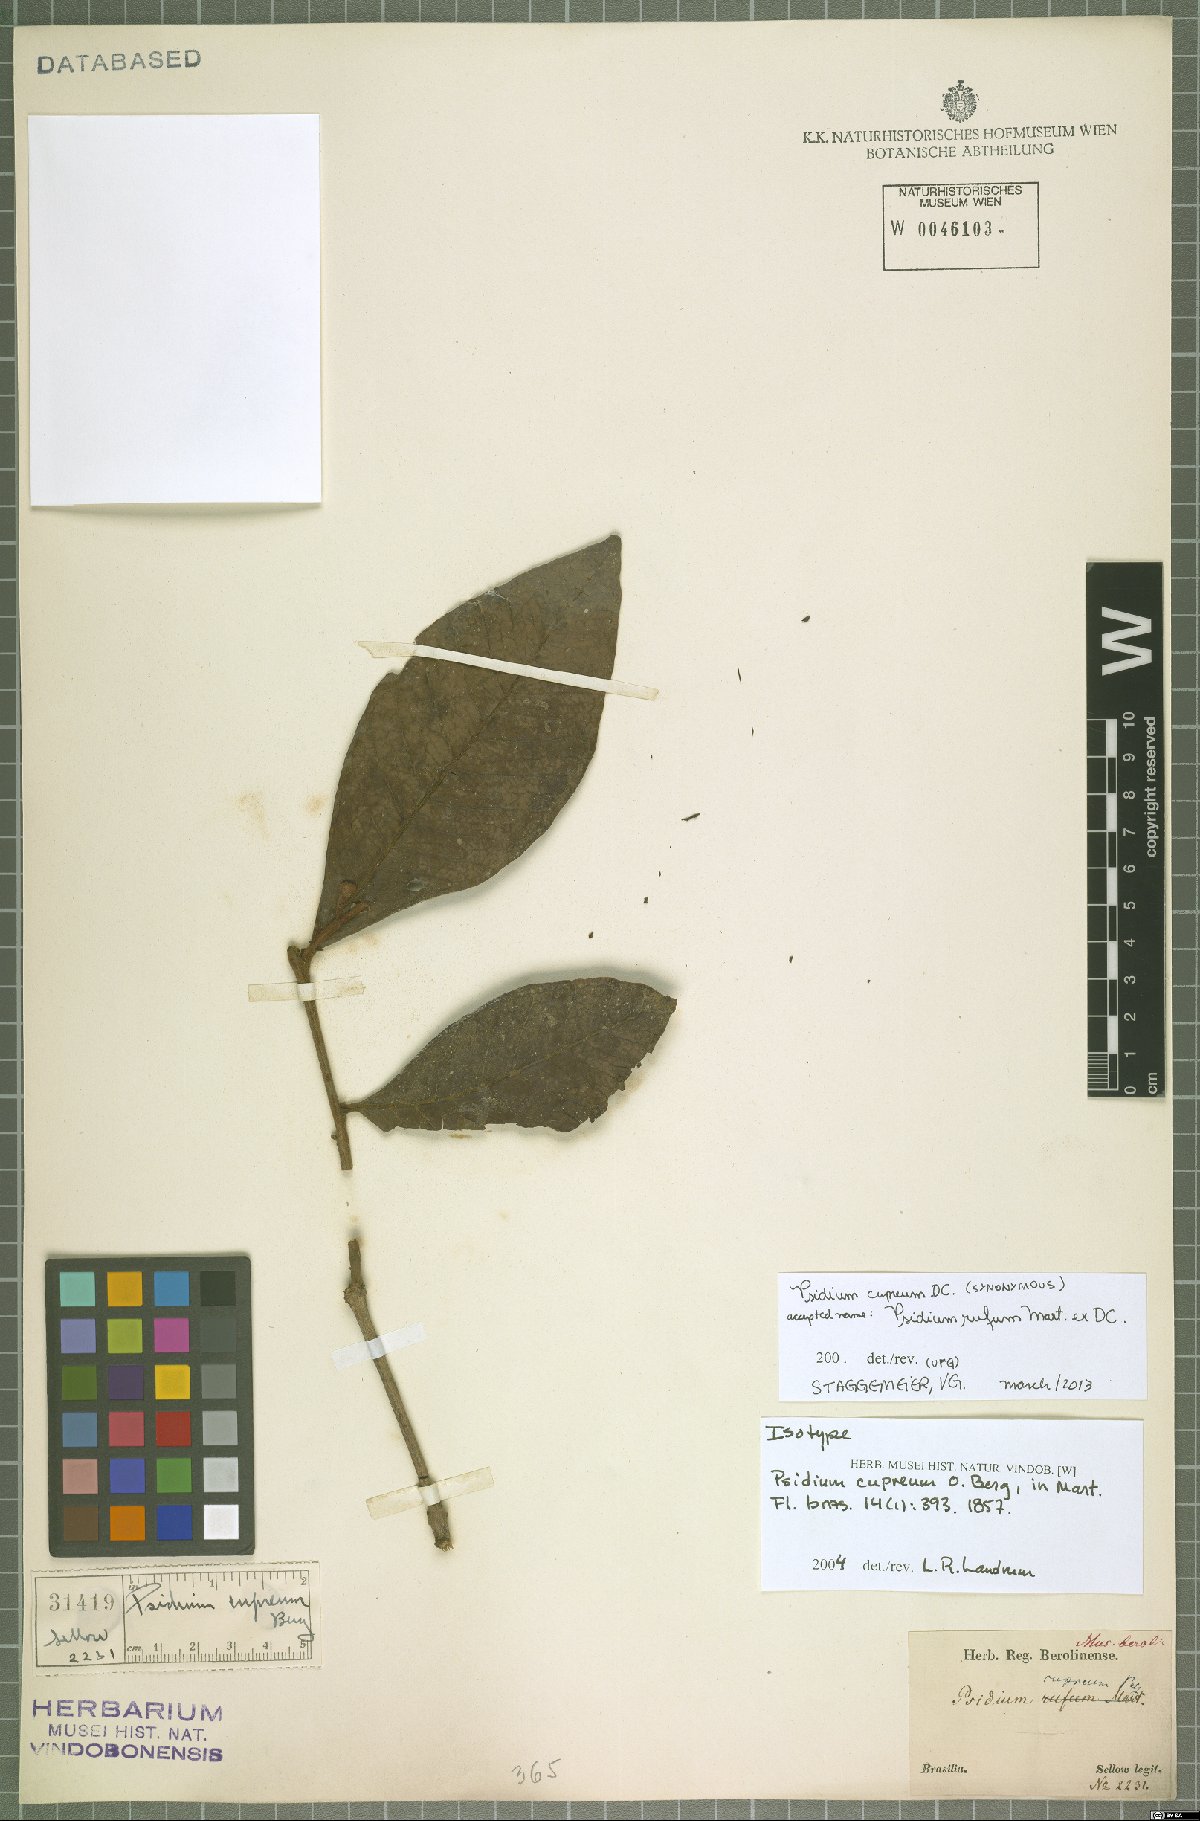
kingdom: Plantae
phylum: Tracheophyta
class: Magnoliopsida
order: Myrtales
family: Myrtaceae
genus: Psidium
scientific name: Psidium rufum
